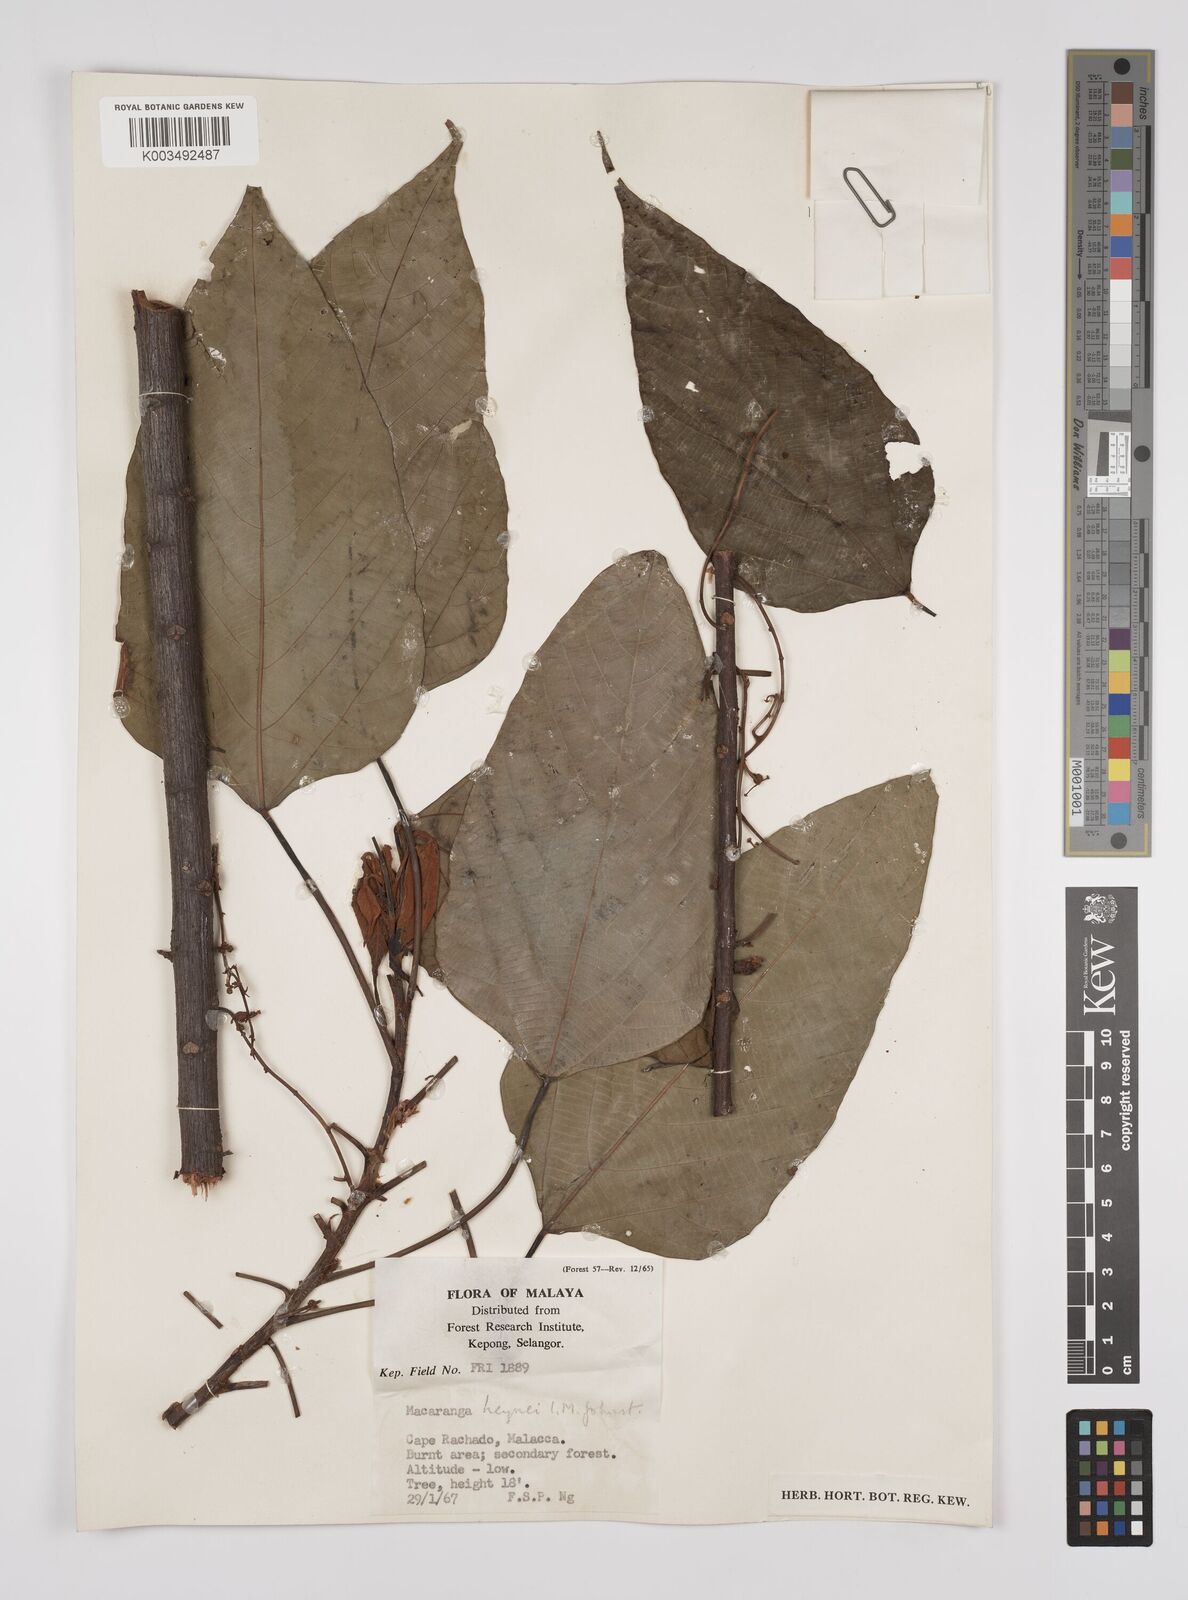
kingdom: Plantae
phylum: Tracheophyta
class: Magnoliopsida
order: Malpighiales
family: Euphorbiaceae
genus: Macaranga
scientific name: Macaranga heynei
